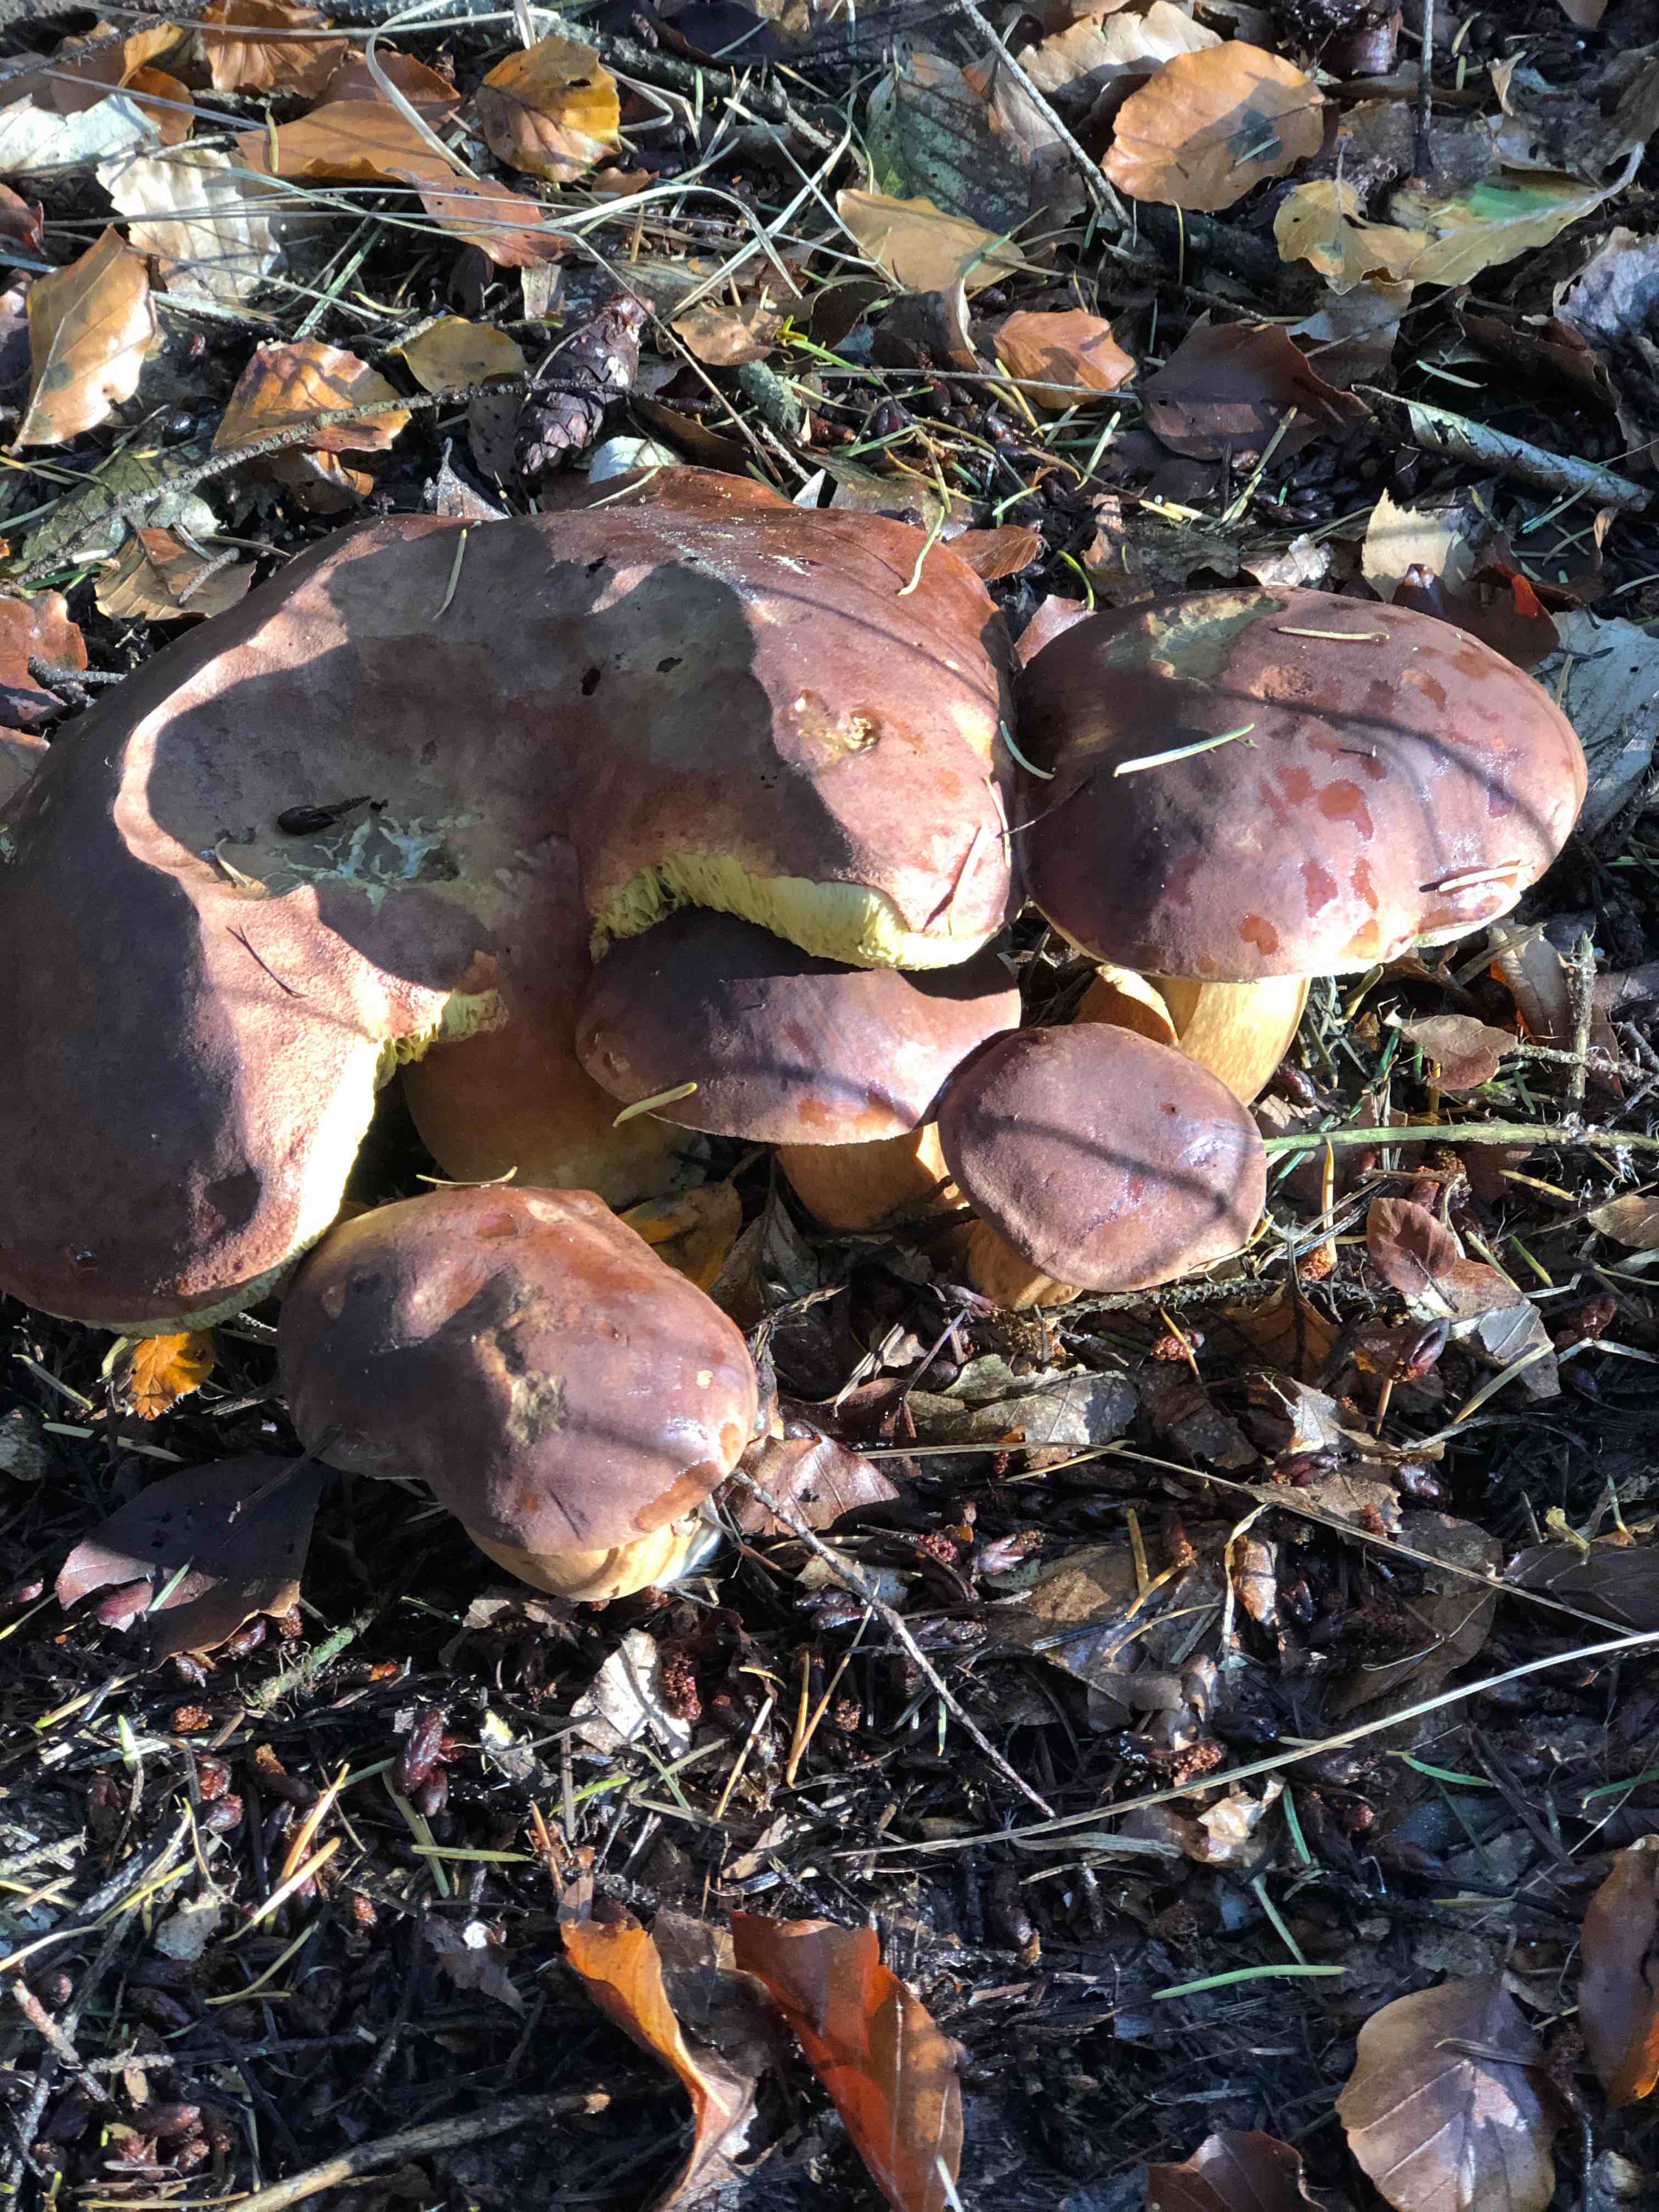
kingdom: Fungi
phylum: Basidiomycota
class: Agaricomycetes
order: Boletales
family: Boletaceae
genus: Imleria
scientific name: Imleria badia
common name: brunstokket rørhat
